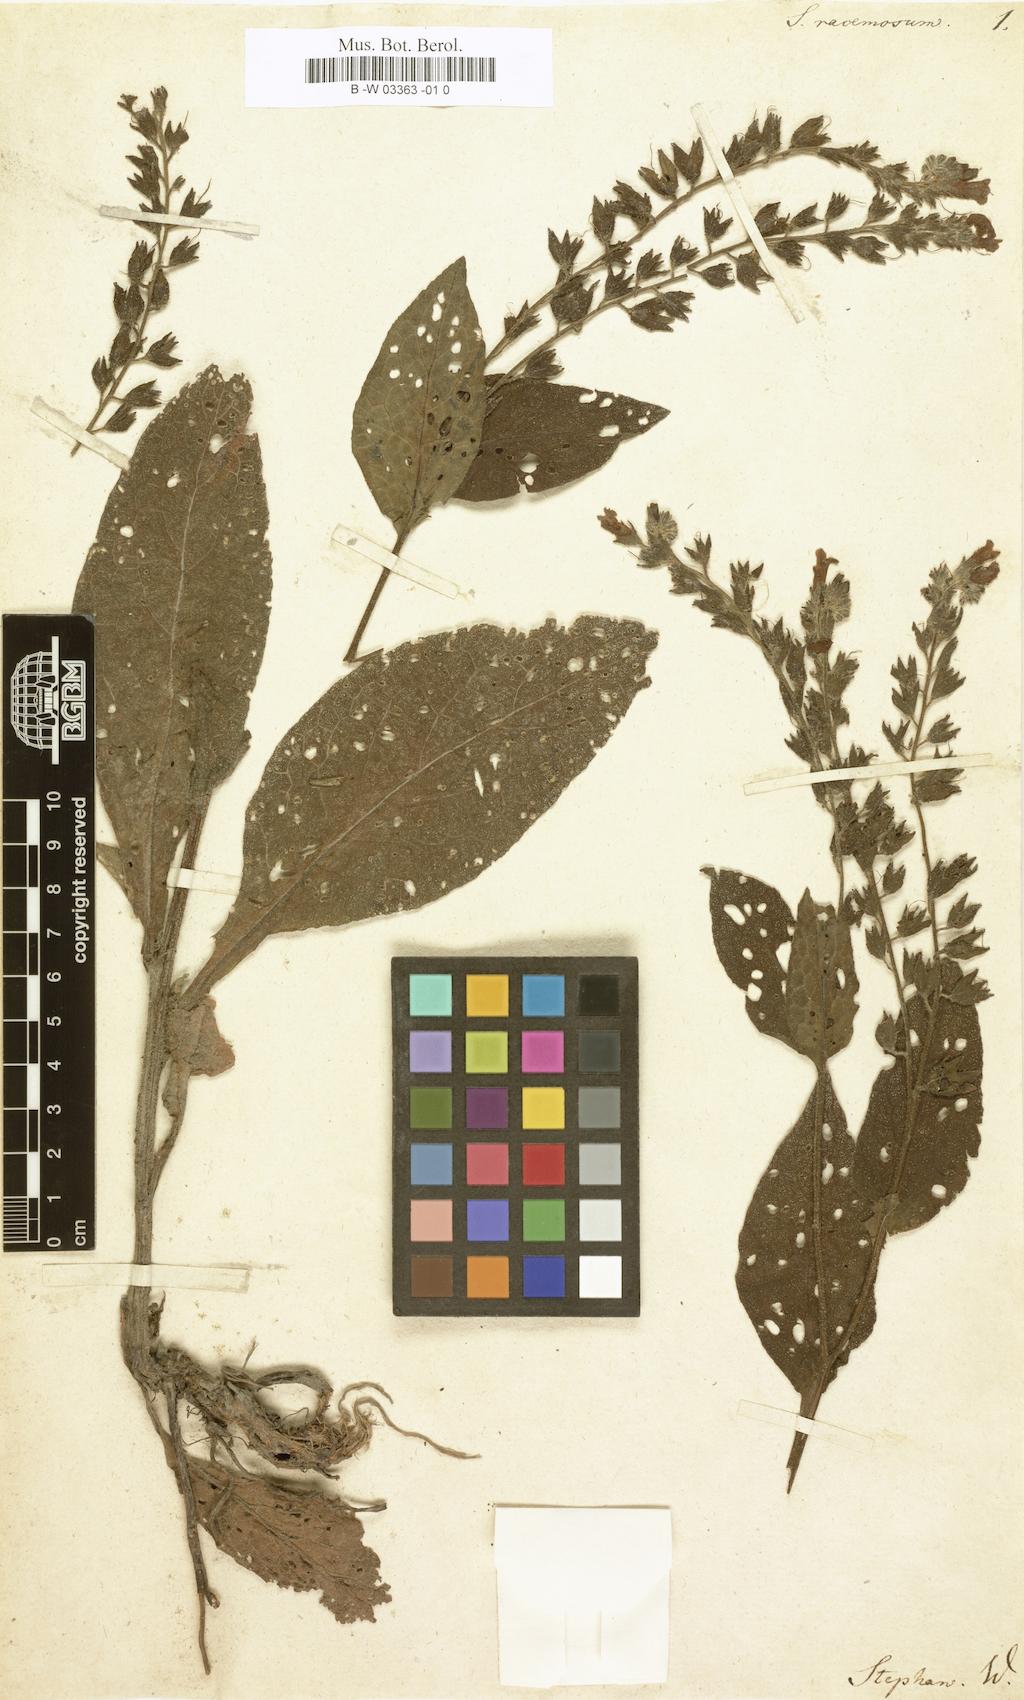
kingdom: Plantae
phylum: Tracheophyta
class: Magnoliopsida
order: Boraginales
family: Boraginaceae
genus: Symphytum
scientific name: Symphytum caucasicum
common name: Caucasian comfrey
